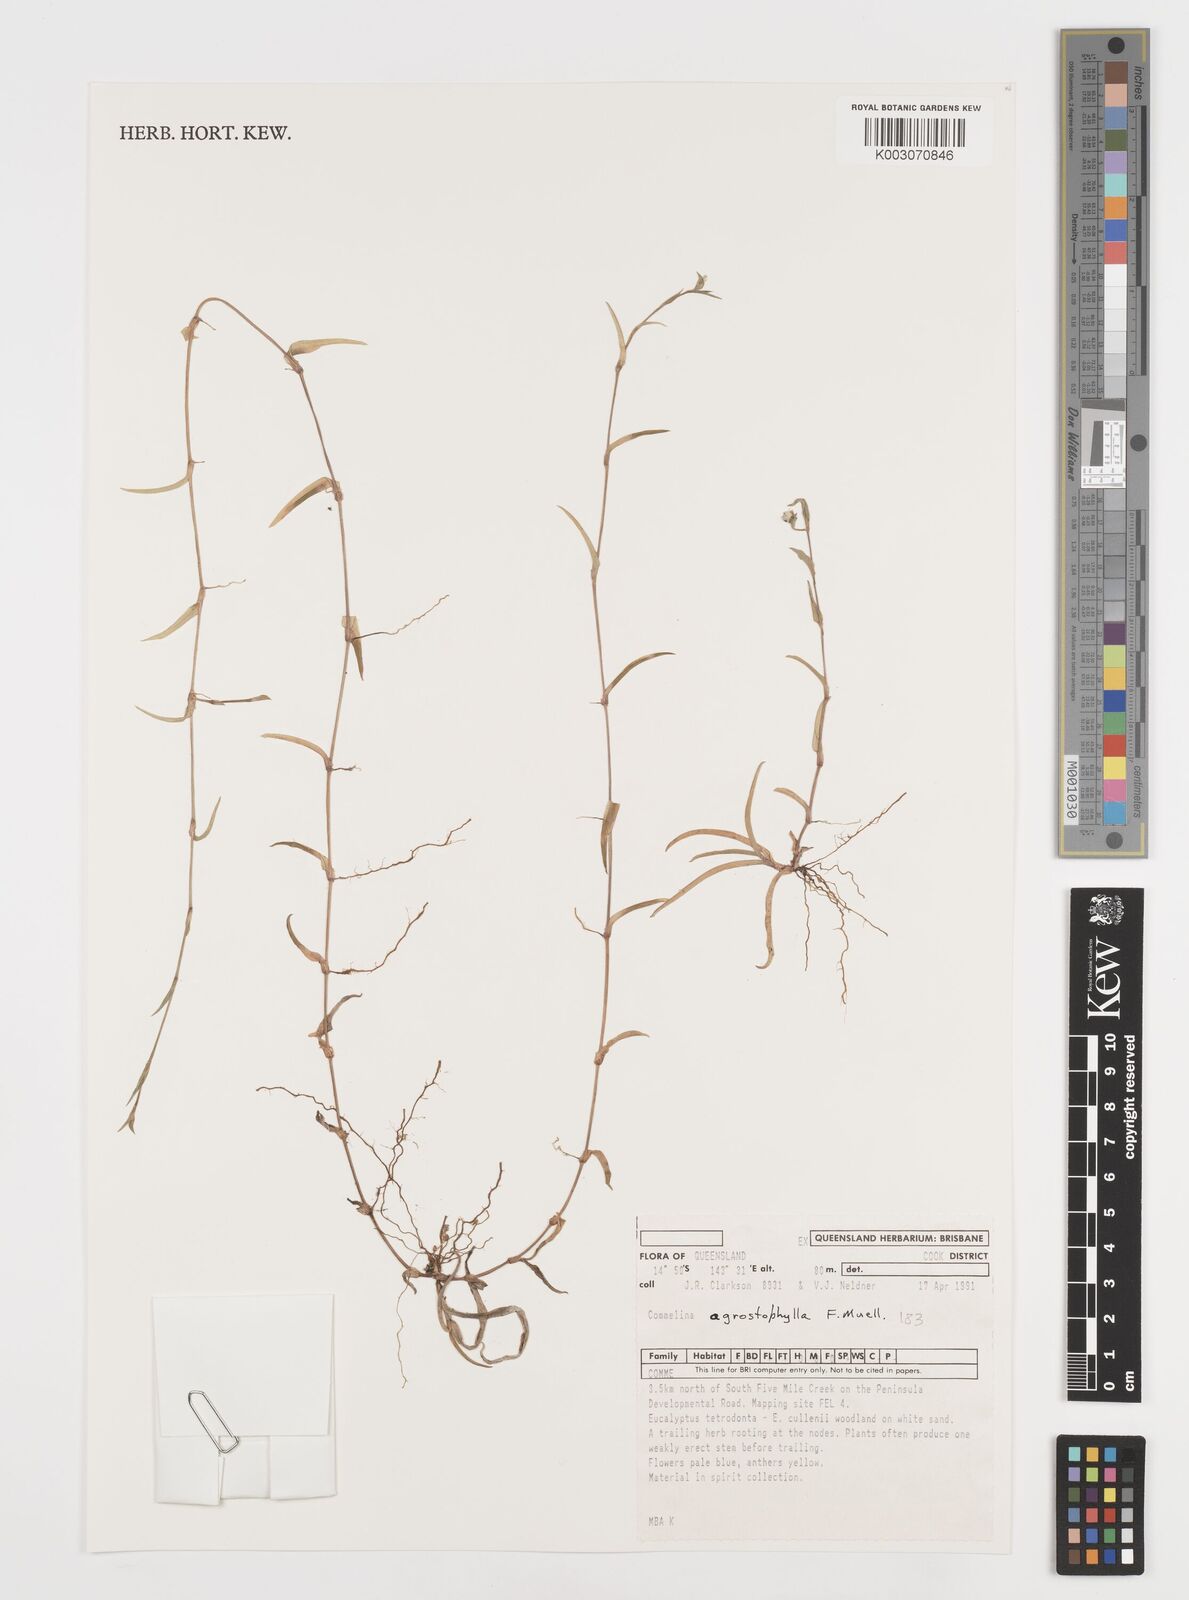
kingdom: Plantae
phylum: Tracheophyta
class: Liliopsida
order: Commelinales
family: Commelinaceae
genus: Commelina
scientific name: Commelina agrostophylla
